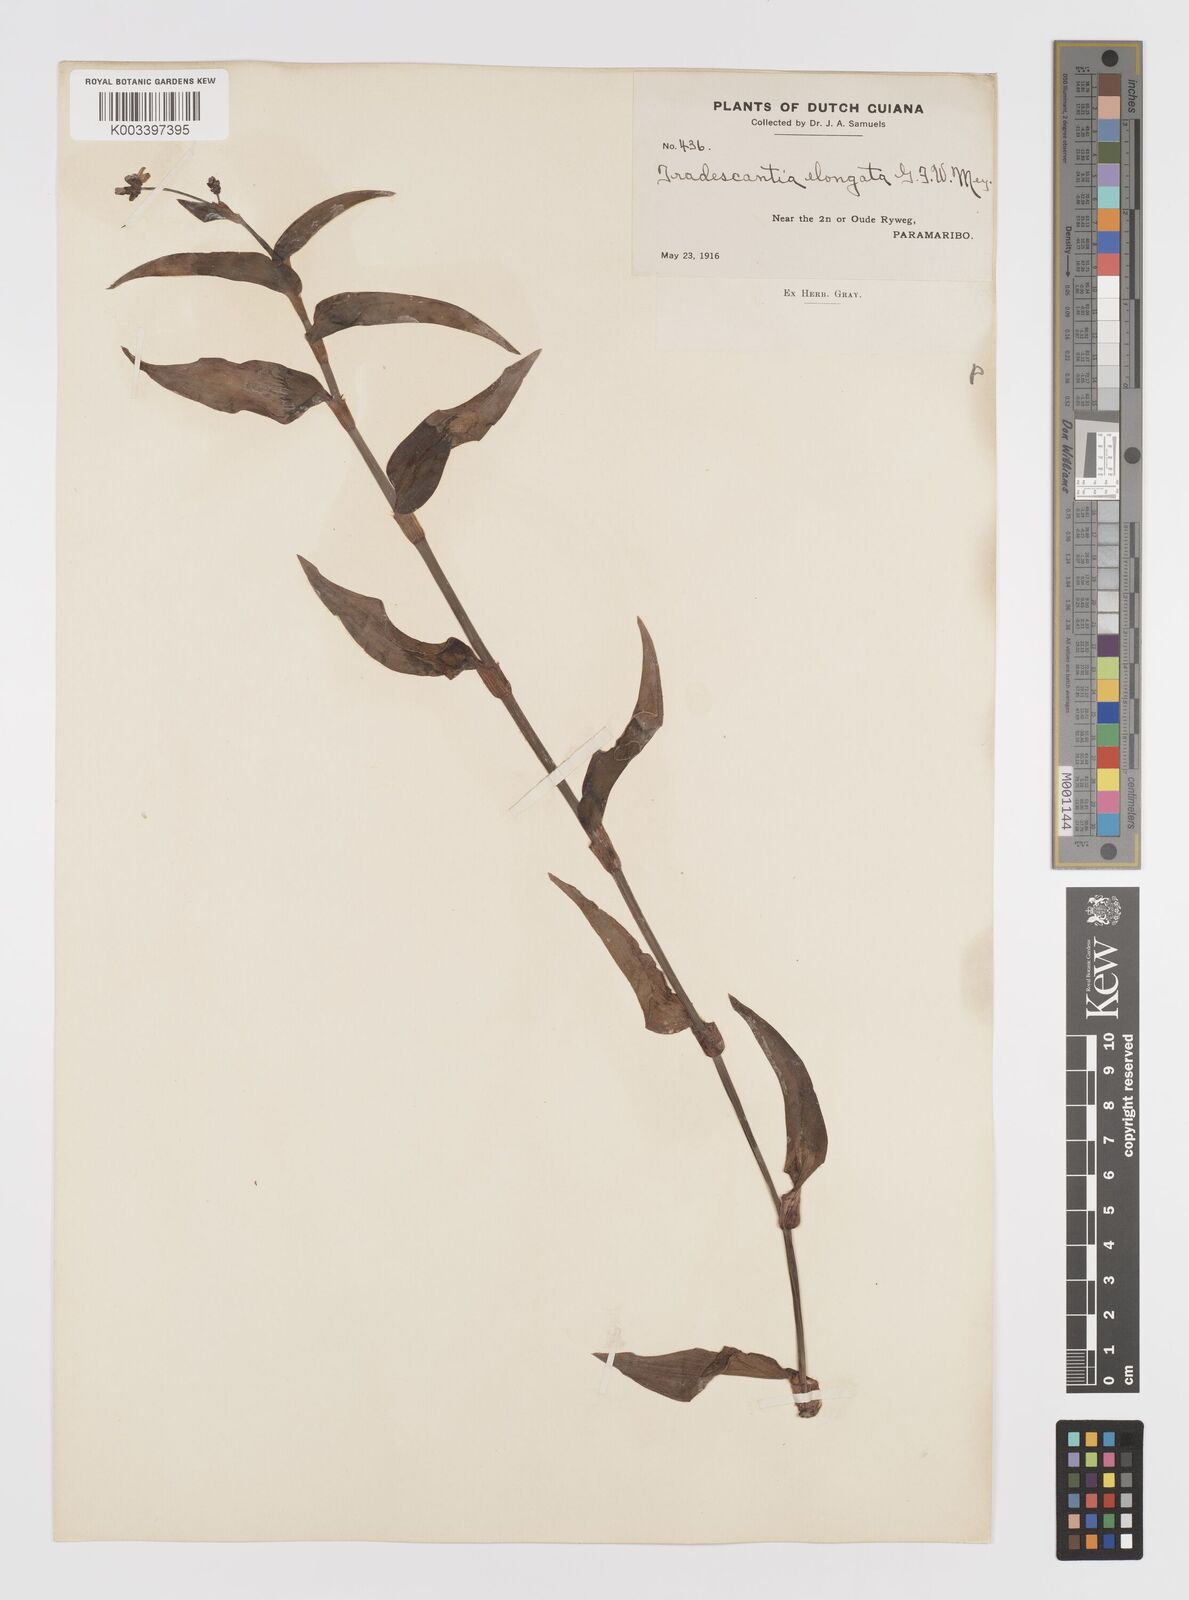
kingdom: Plantae
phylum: Tracheophyta
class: Liliopsida
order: Commelinales
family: Commelinaceae
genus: Callisia
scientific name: Callisia serrulata
